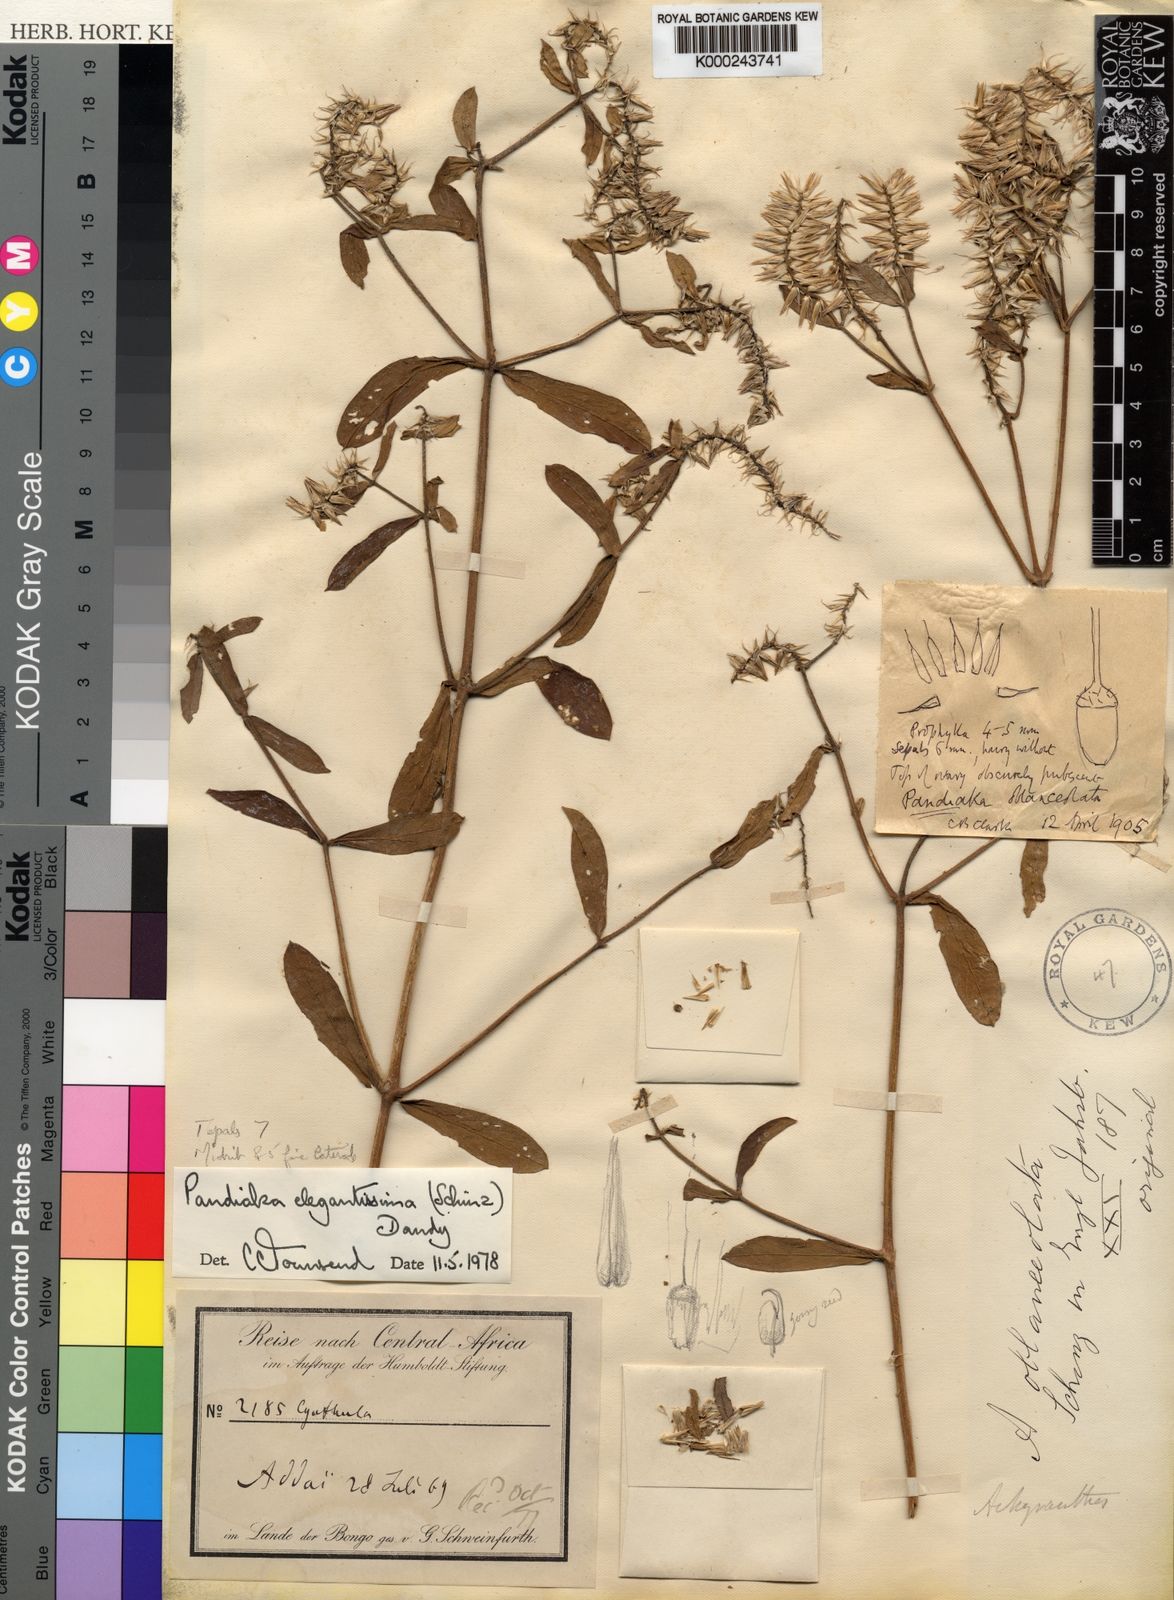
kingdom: Plantae
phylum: Tracheophyta
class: Magnoliopsida
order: Caryophyllales
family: Amaranthaceae
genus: Pandiaka
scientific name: Pandiaka elegantissima
